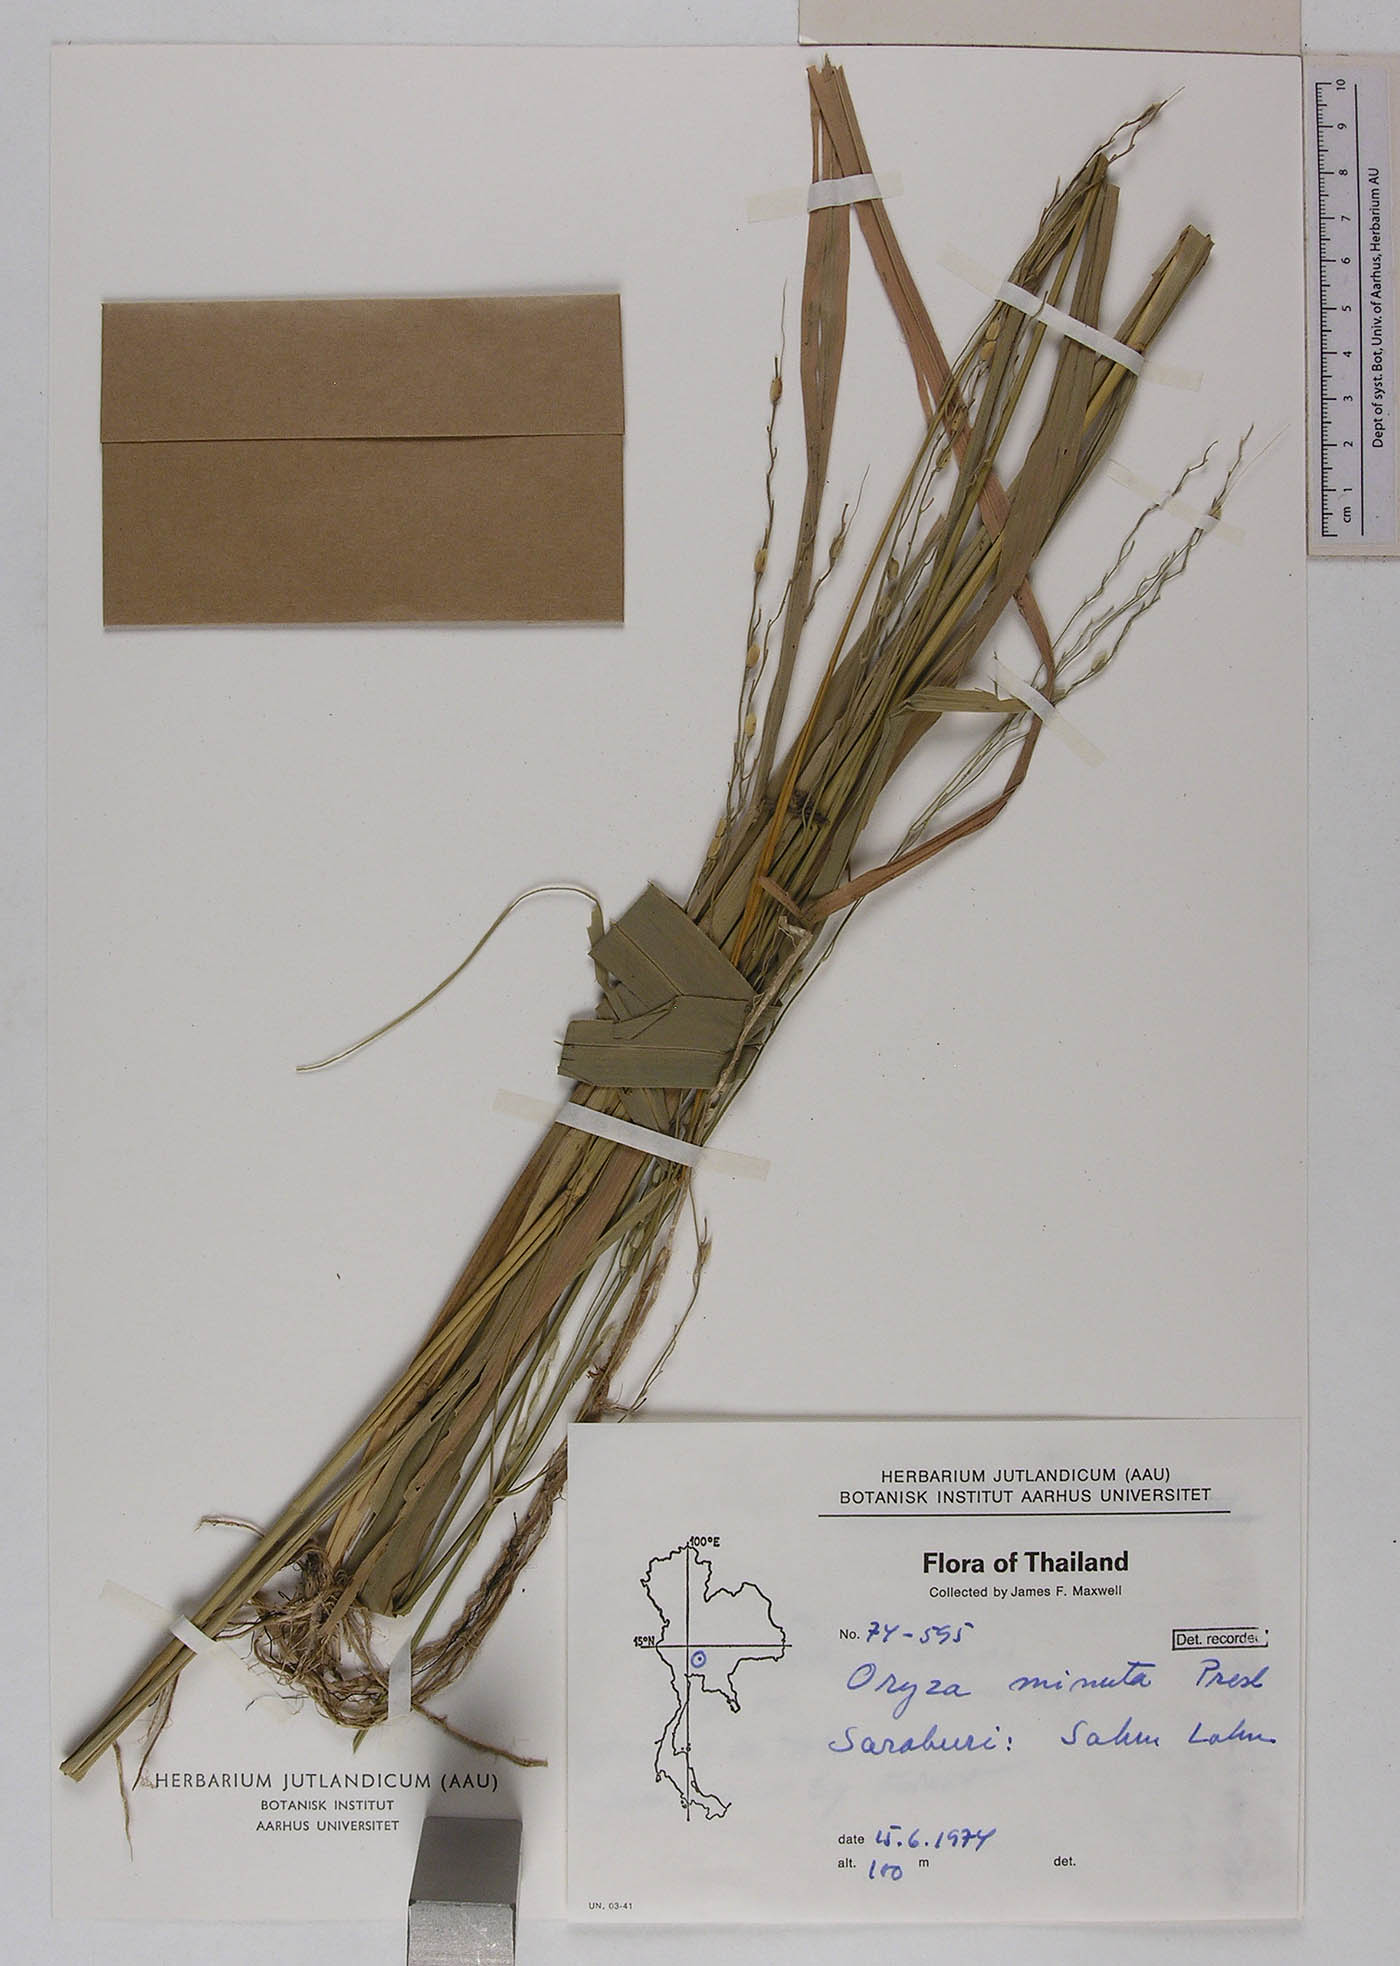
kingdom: Plantae
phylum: Tracheophyta
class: Liliopsida
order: Poales
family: Poaceae
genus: Oryza
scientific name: Oryza minuta
